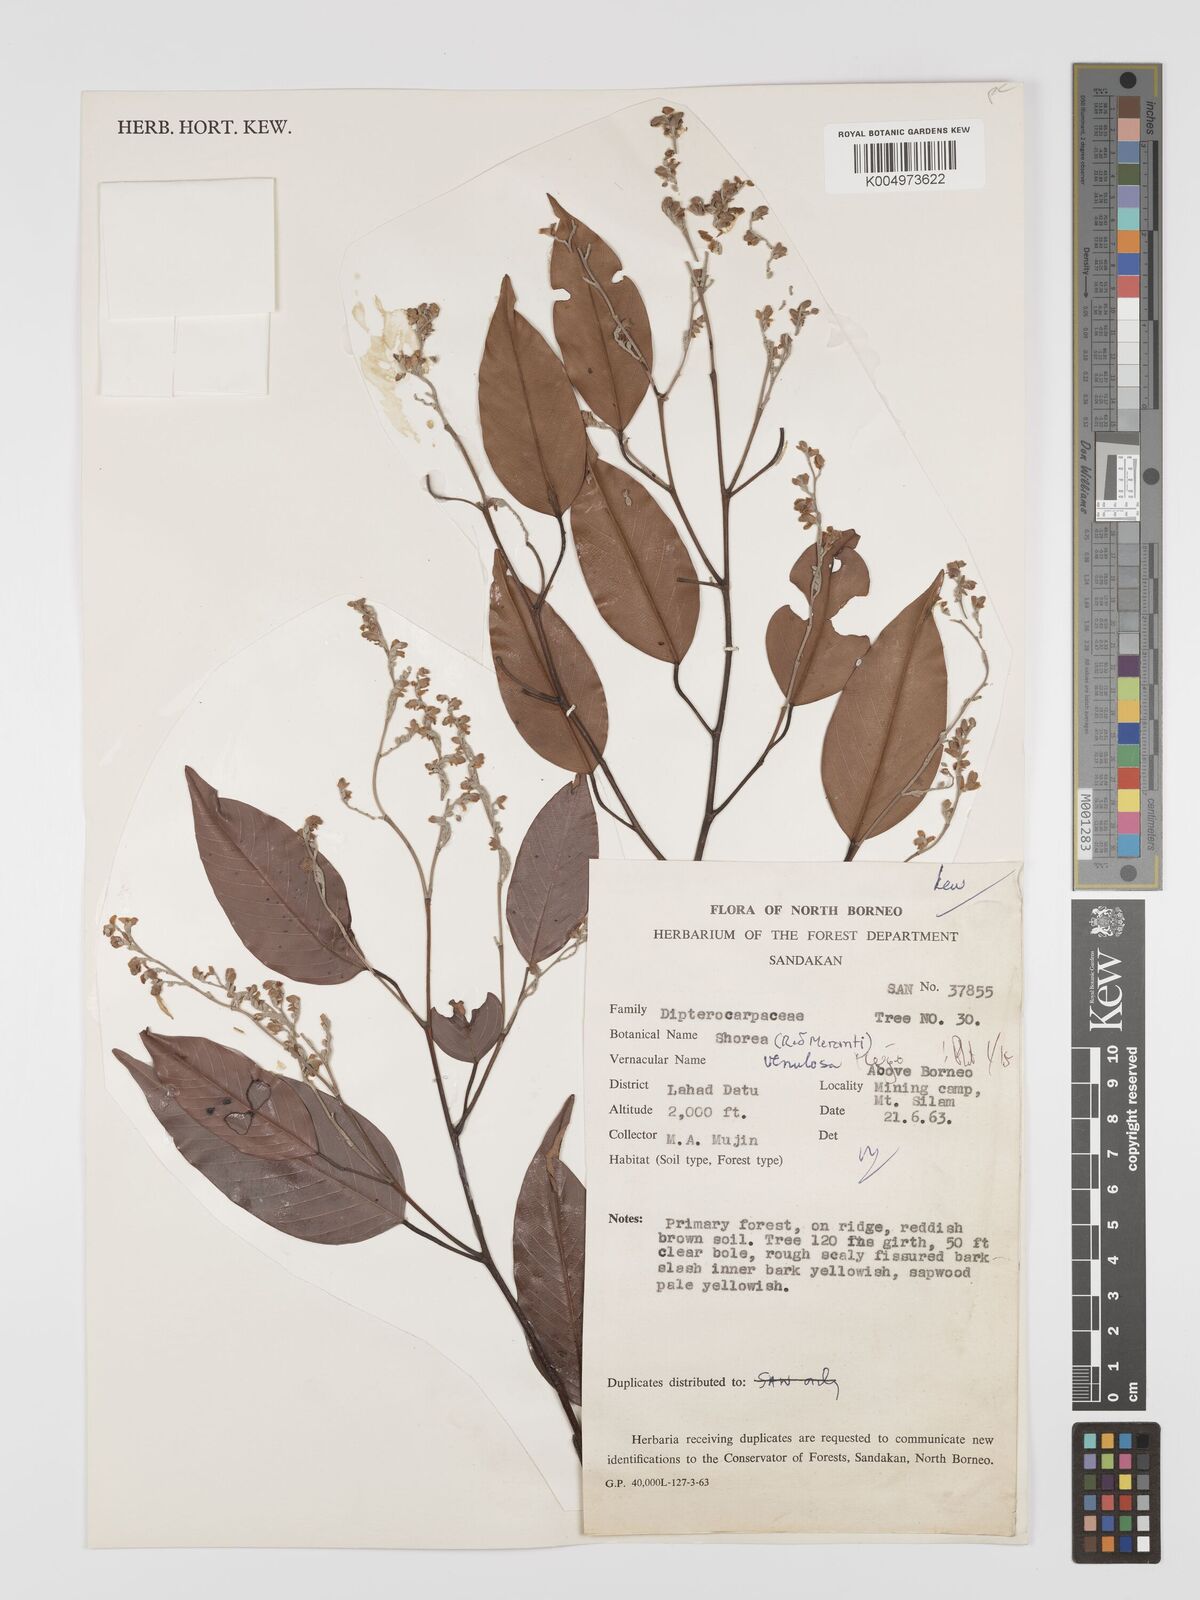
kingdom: Plantae
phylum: Tracheophyta
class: Magnoliopsida
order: Malvales
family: Dipterocarpaceae
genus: Shorea
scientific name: Shorea venulosa
